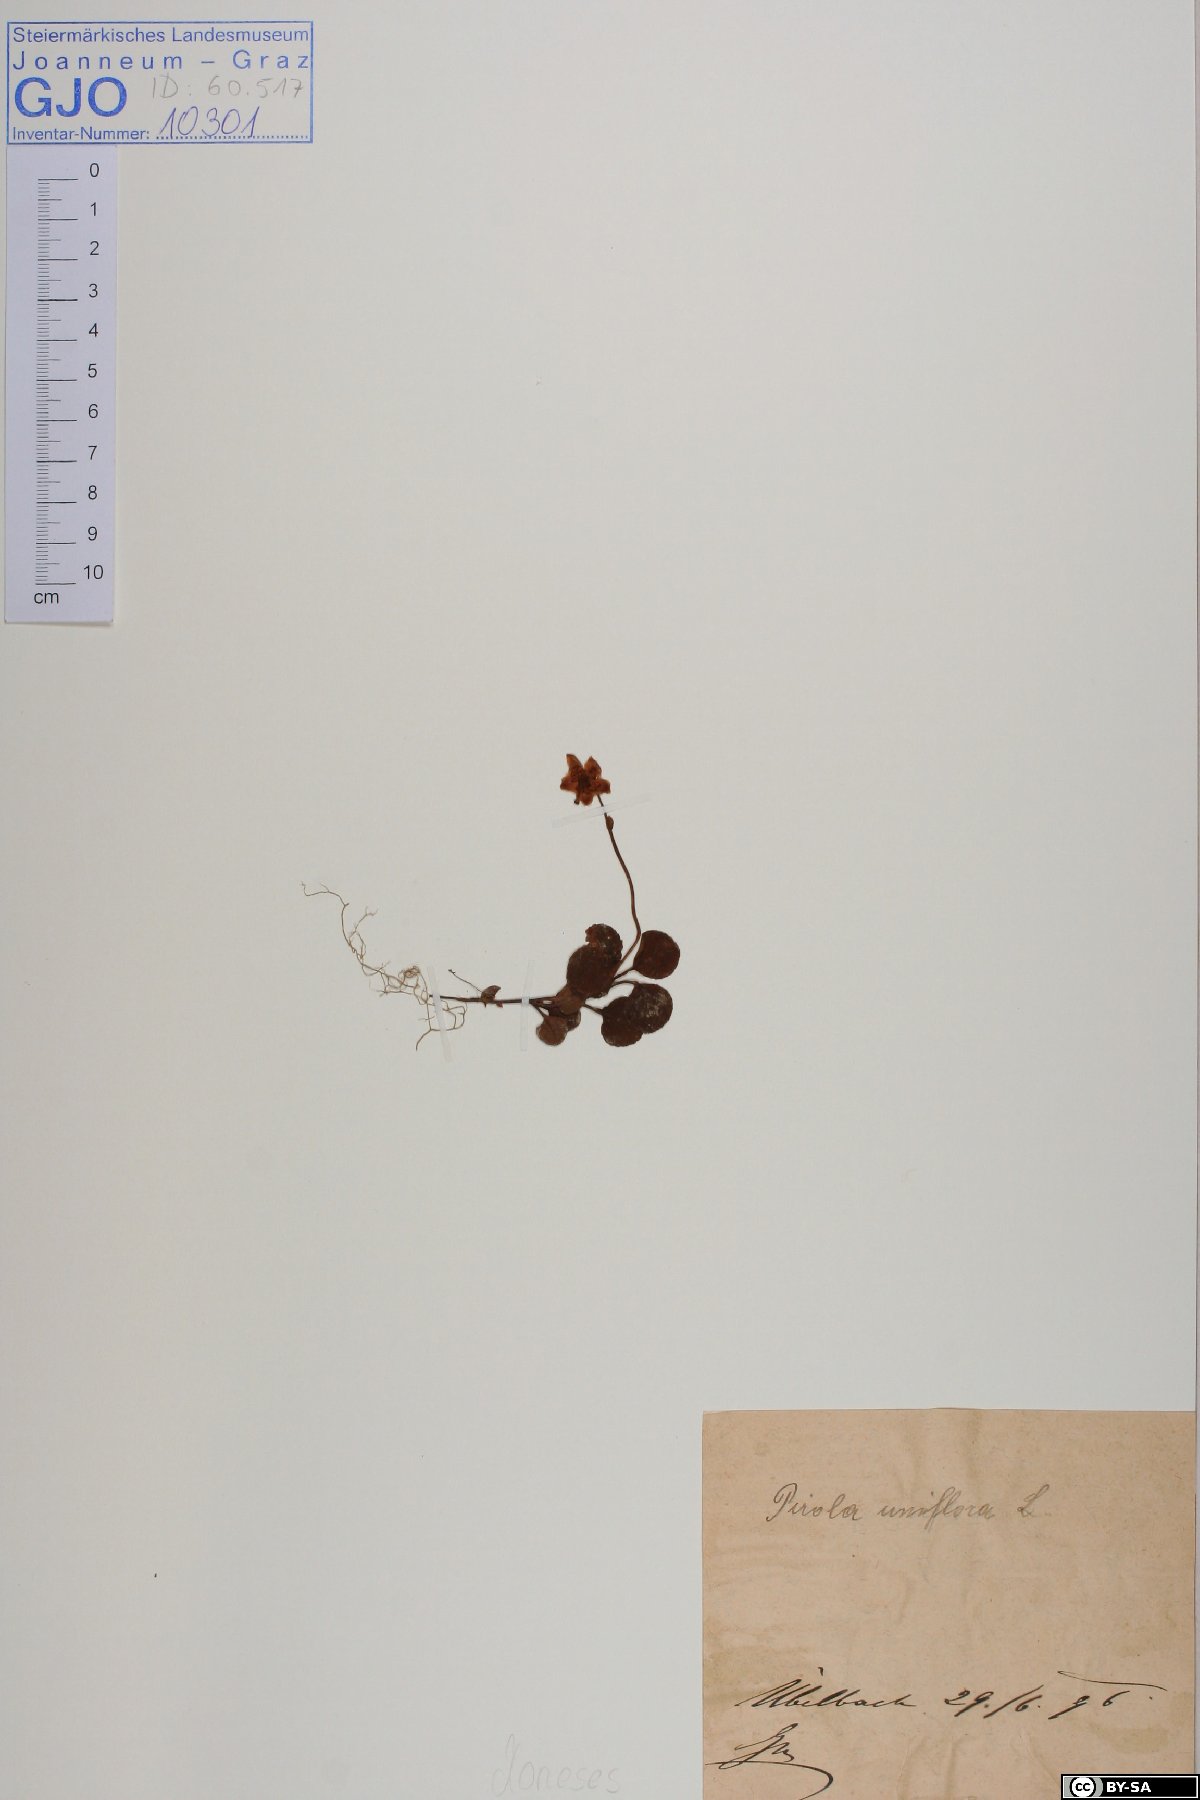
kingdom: Plantae
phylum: Tracheophyta
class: Magnoliopsida
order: Ericales
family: Ericaceae
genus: Moneses
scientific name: Moneses uniflora
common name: One-flowered wintergreen
